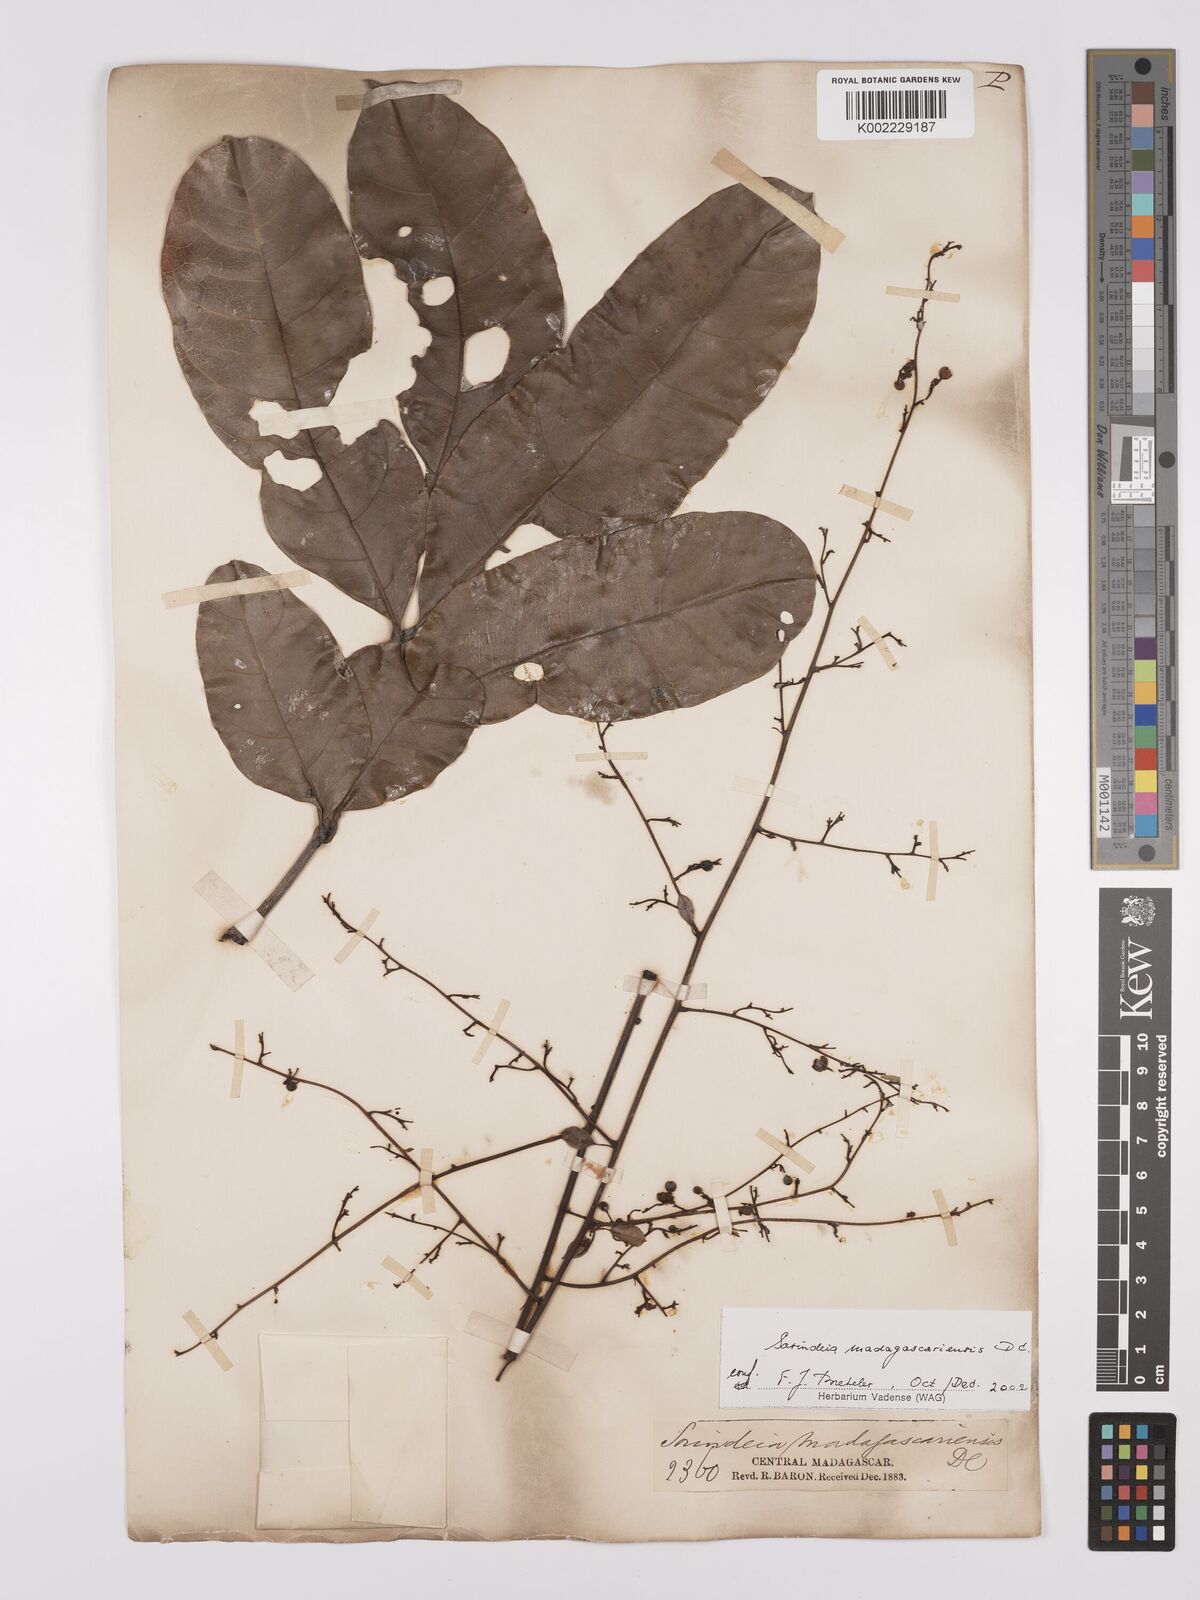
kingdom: Plantae
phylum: Tracheophyta
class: Magnoliopsida
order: Sapindales
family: Anacardiaceae
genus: Sorindeia
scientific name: Sorindeia madagascariensis
